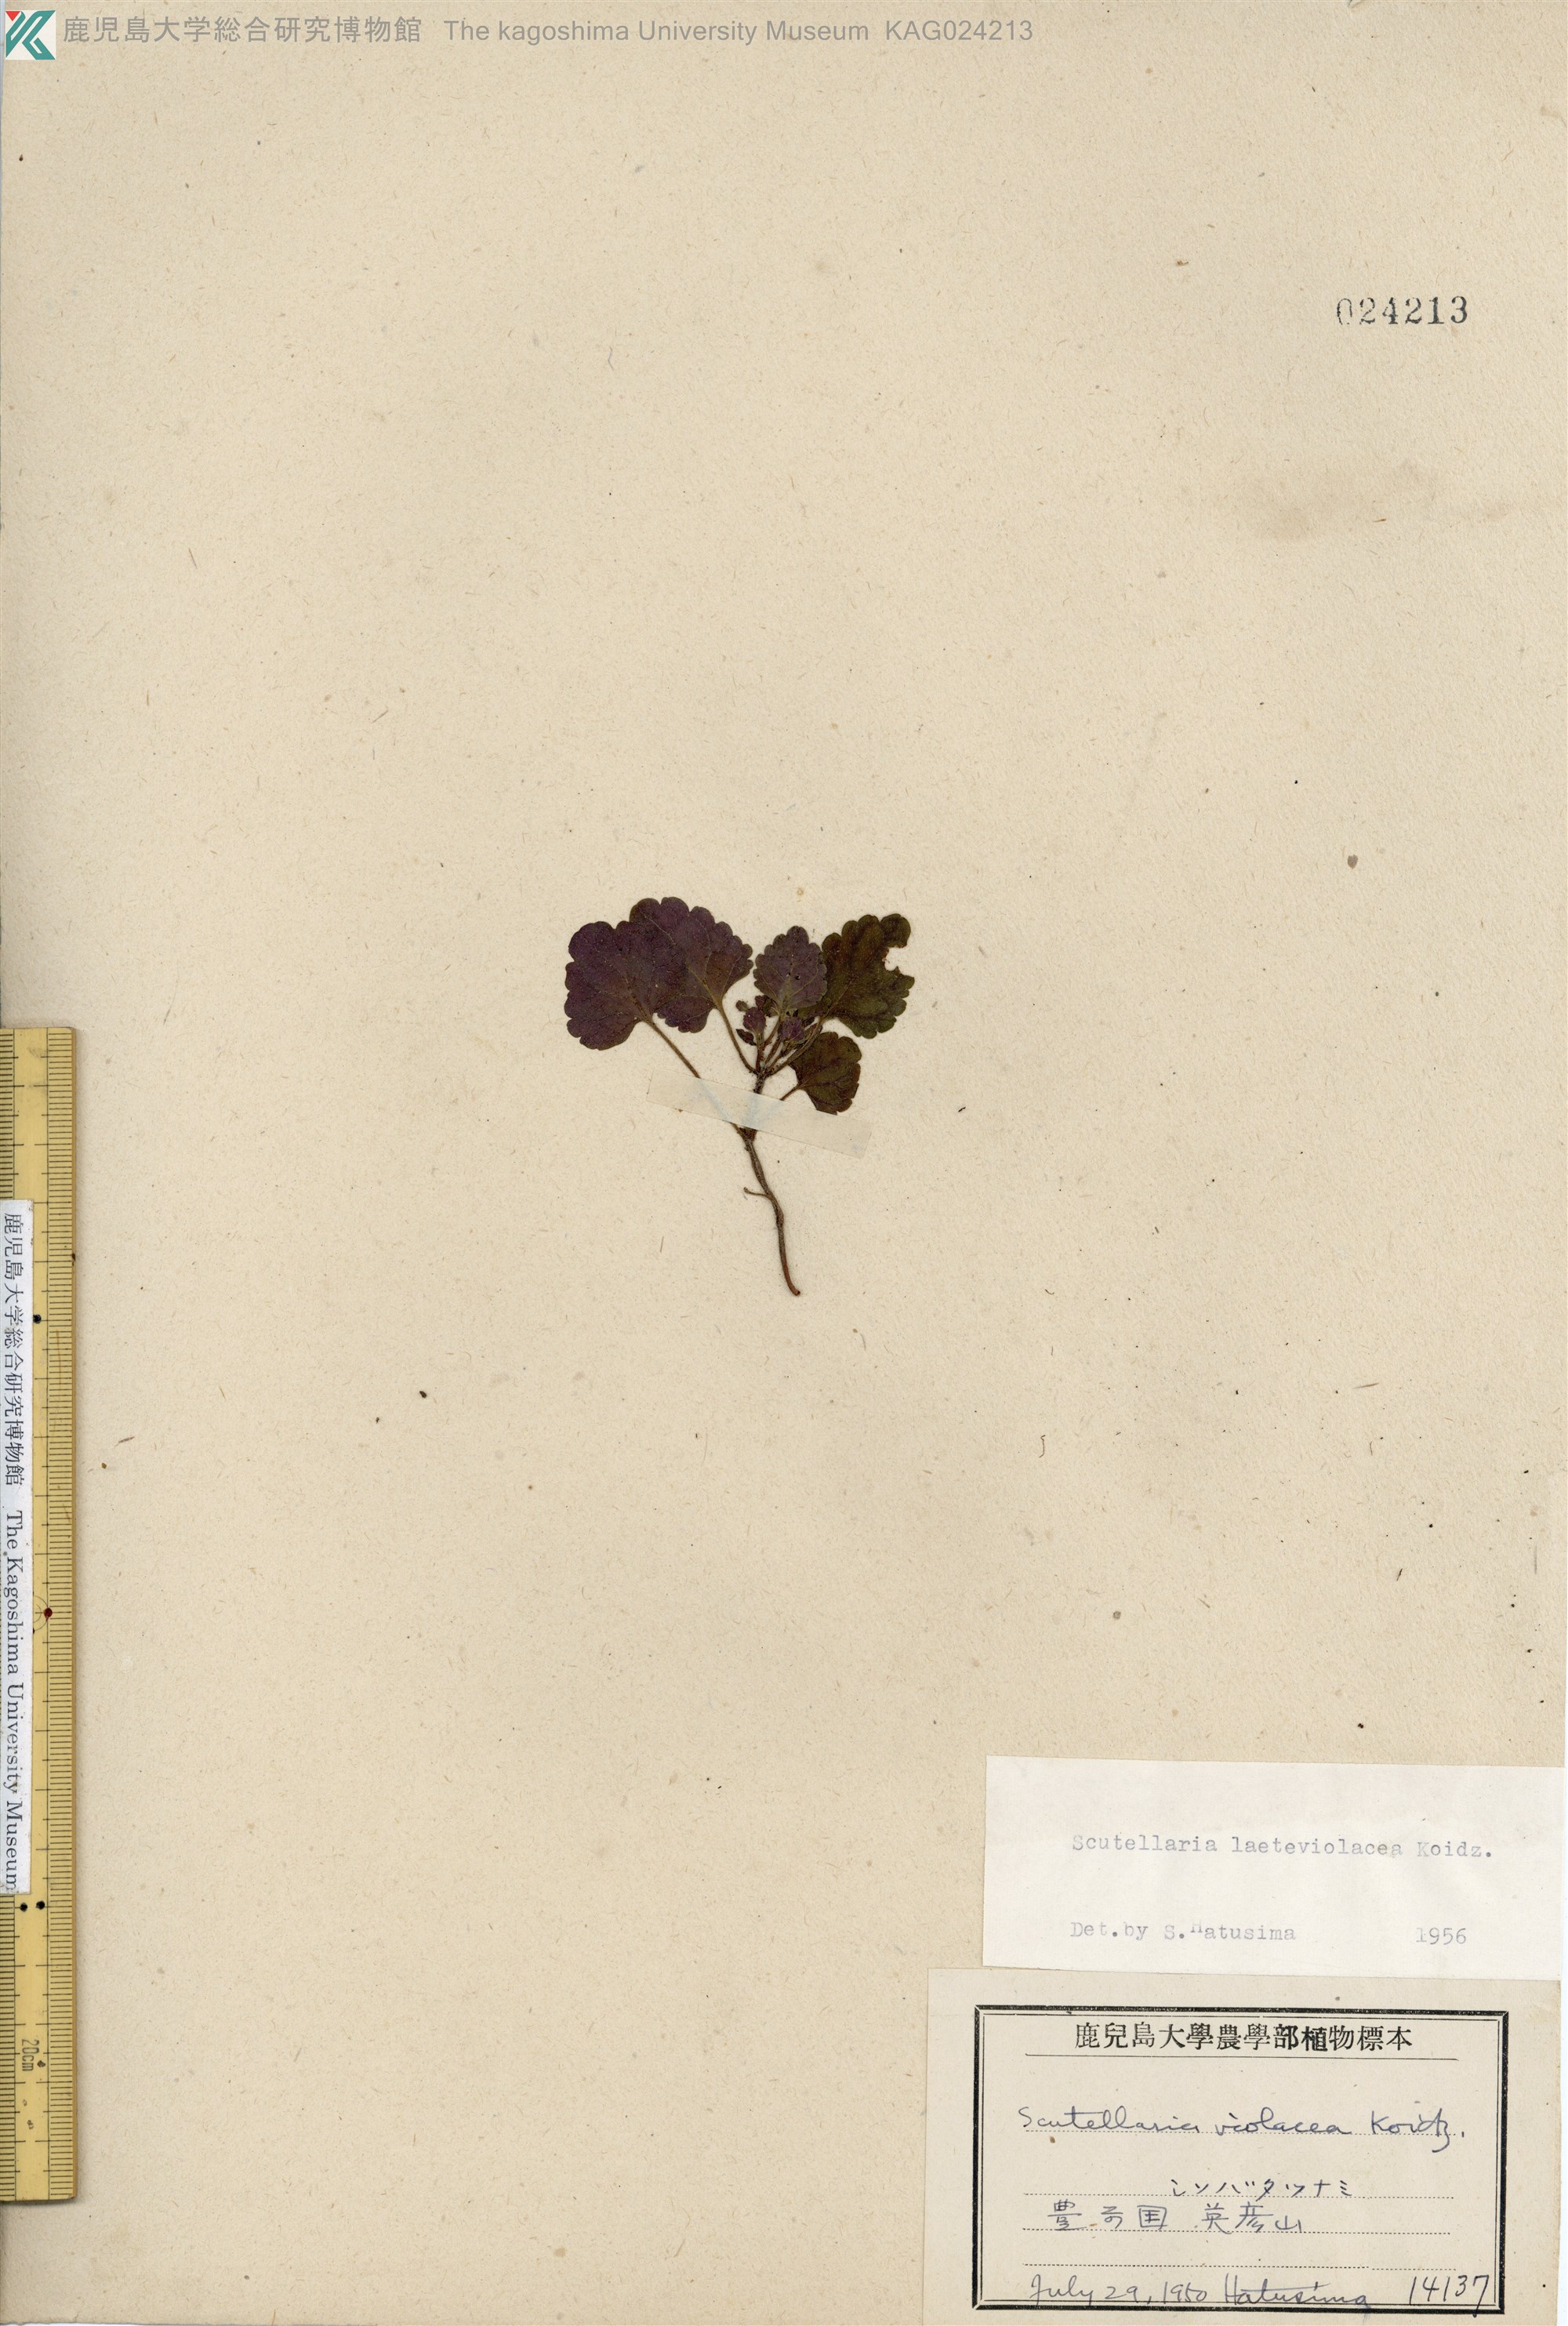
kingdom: Plantae
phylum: Tracheophyta
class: Magnoliopsida
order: Lamiales
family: Lamiaceae
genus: Scutellaria
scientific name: Scutellaria laeteviolacea
